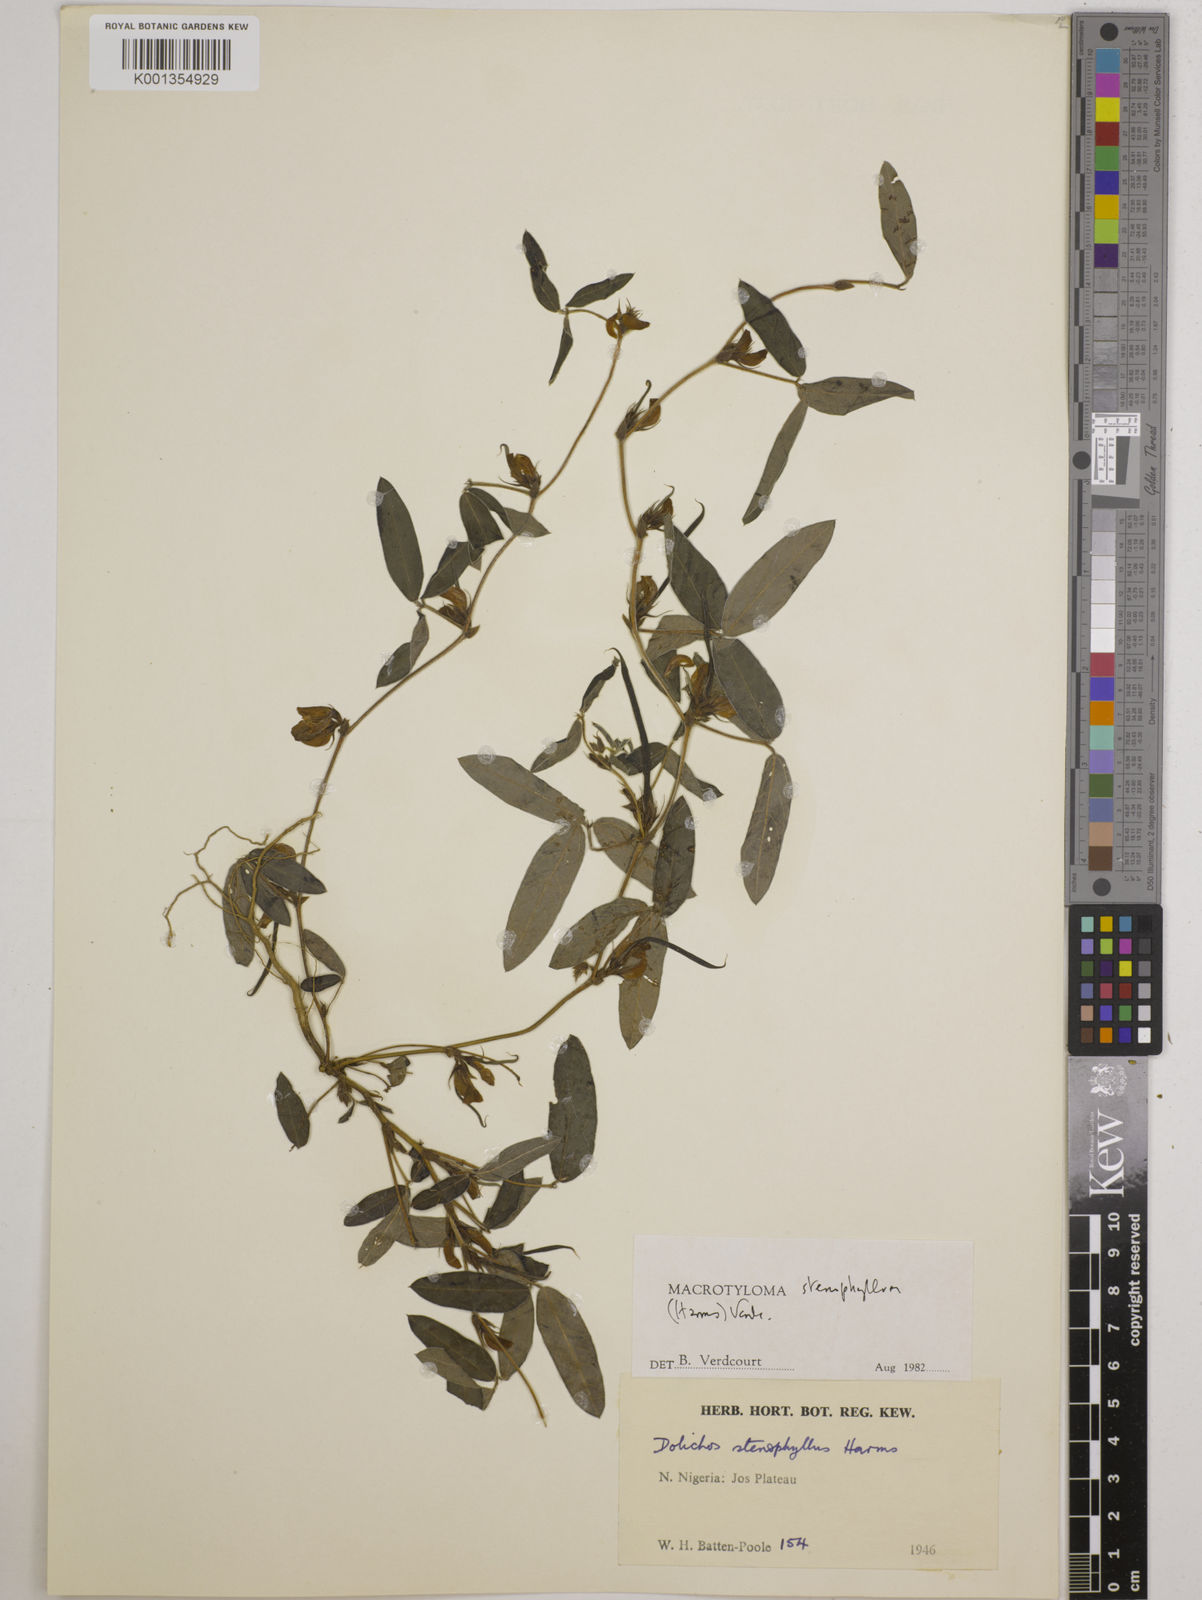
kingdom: Plantae
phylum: Tracheophyta
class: Magnoliopsida
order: Fabales
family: Fabaceae
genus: Macrotyloma
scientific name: Macrotyloma stenophyllum
